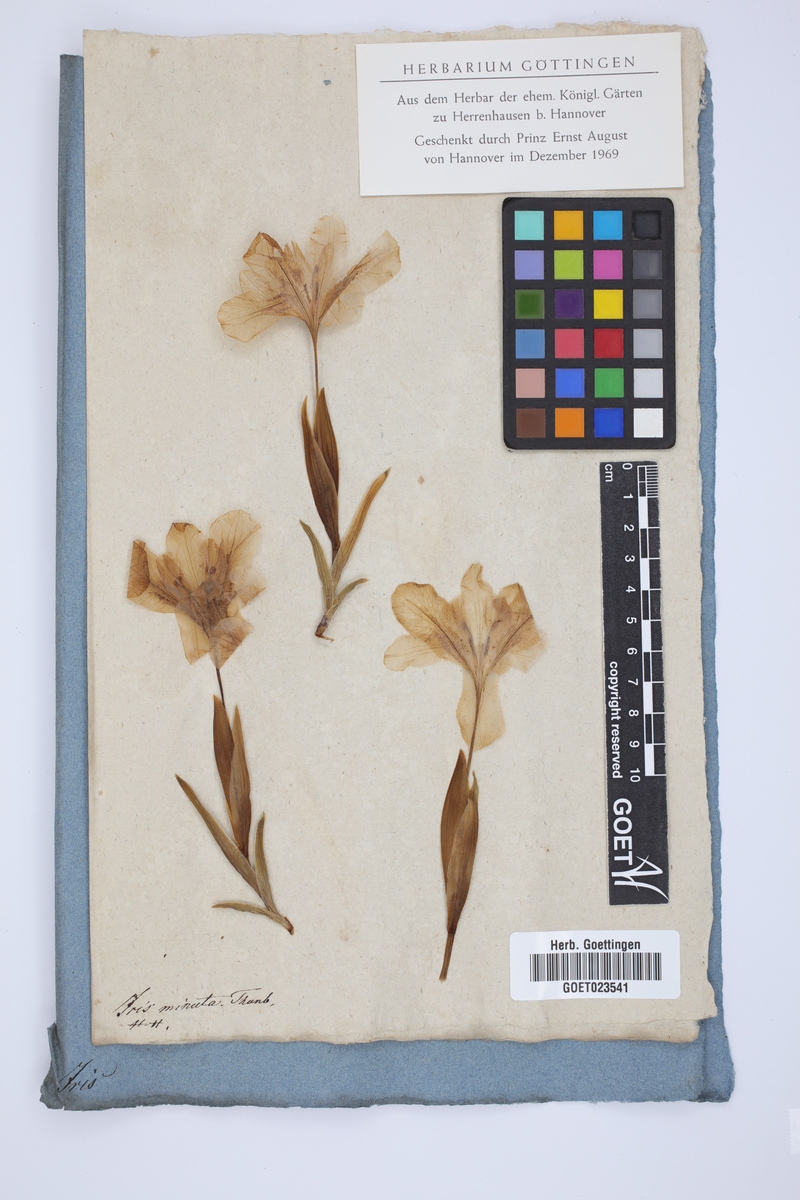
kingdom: Plantae
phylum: Tracheophyta
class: Liliopsida
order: Asparagales
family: Iridaceae
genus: Moraea
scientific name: Moraea ciliata
